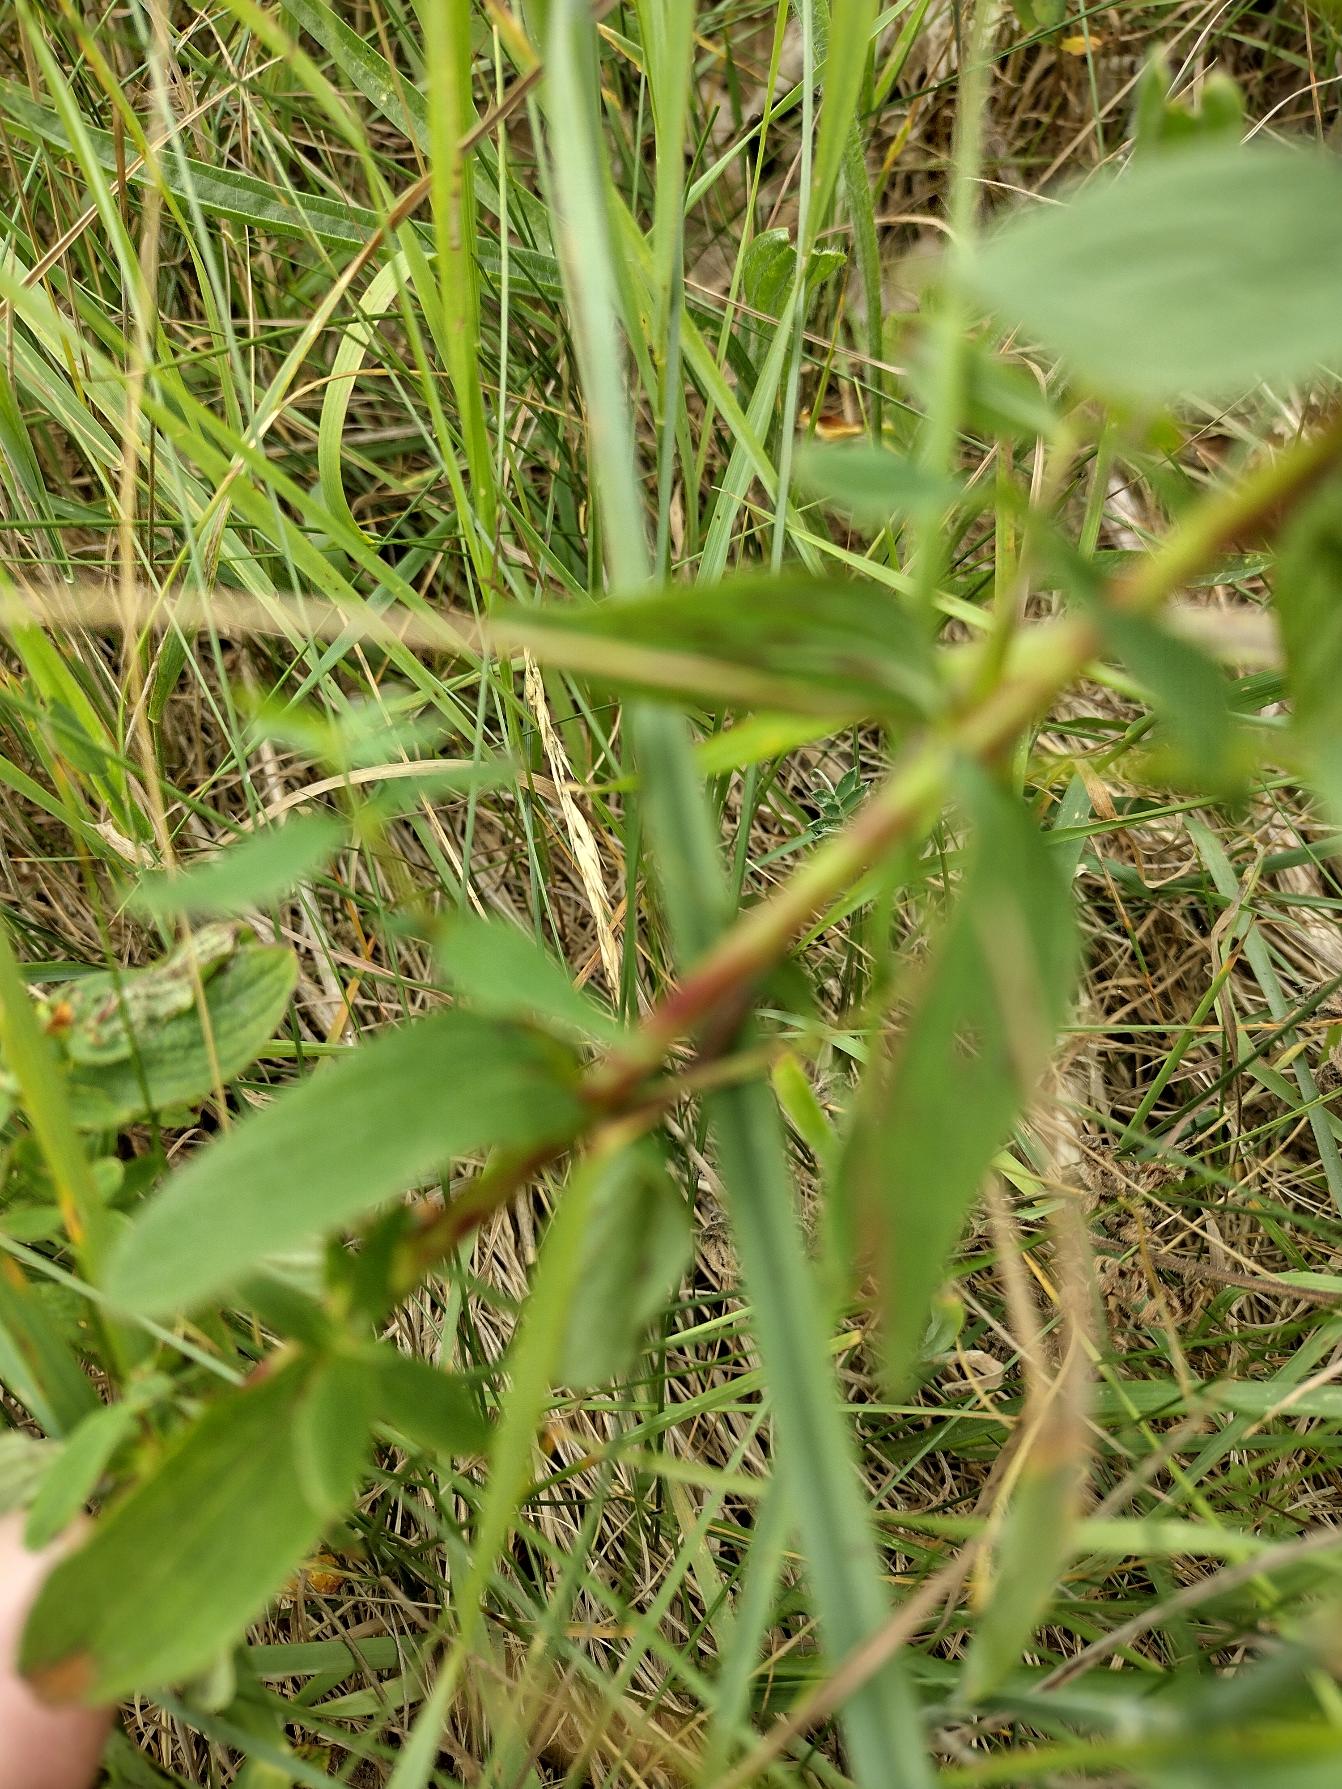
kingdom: Plantae
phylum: Tracheophyta
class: Magnoliopsida
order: Malpighiales
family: Hypericaceae
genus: Hypericum
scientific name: Hypericum maculatum
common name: Kantet perikon
